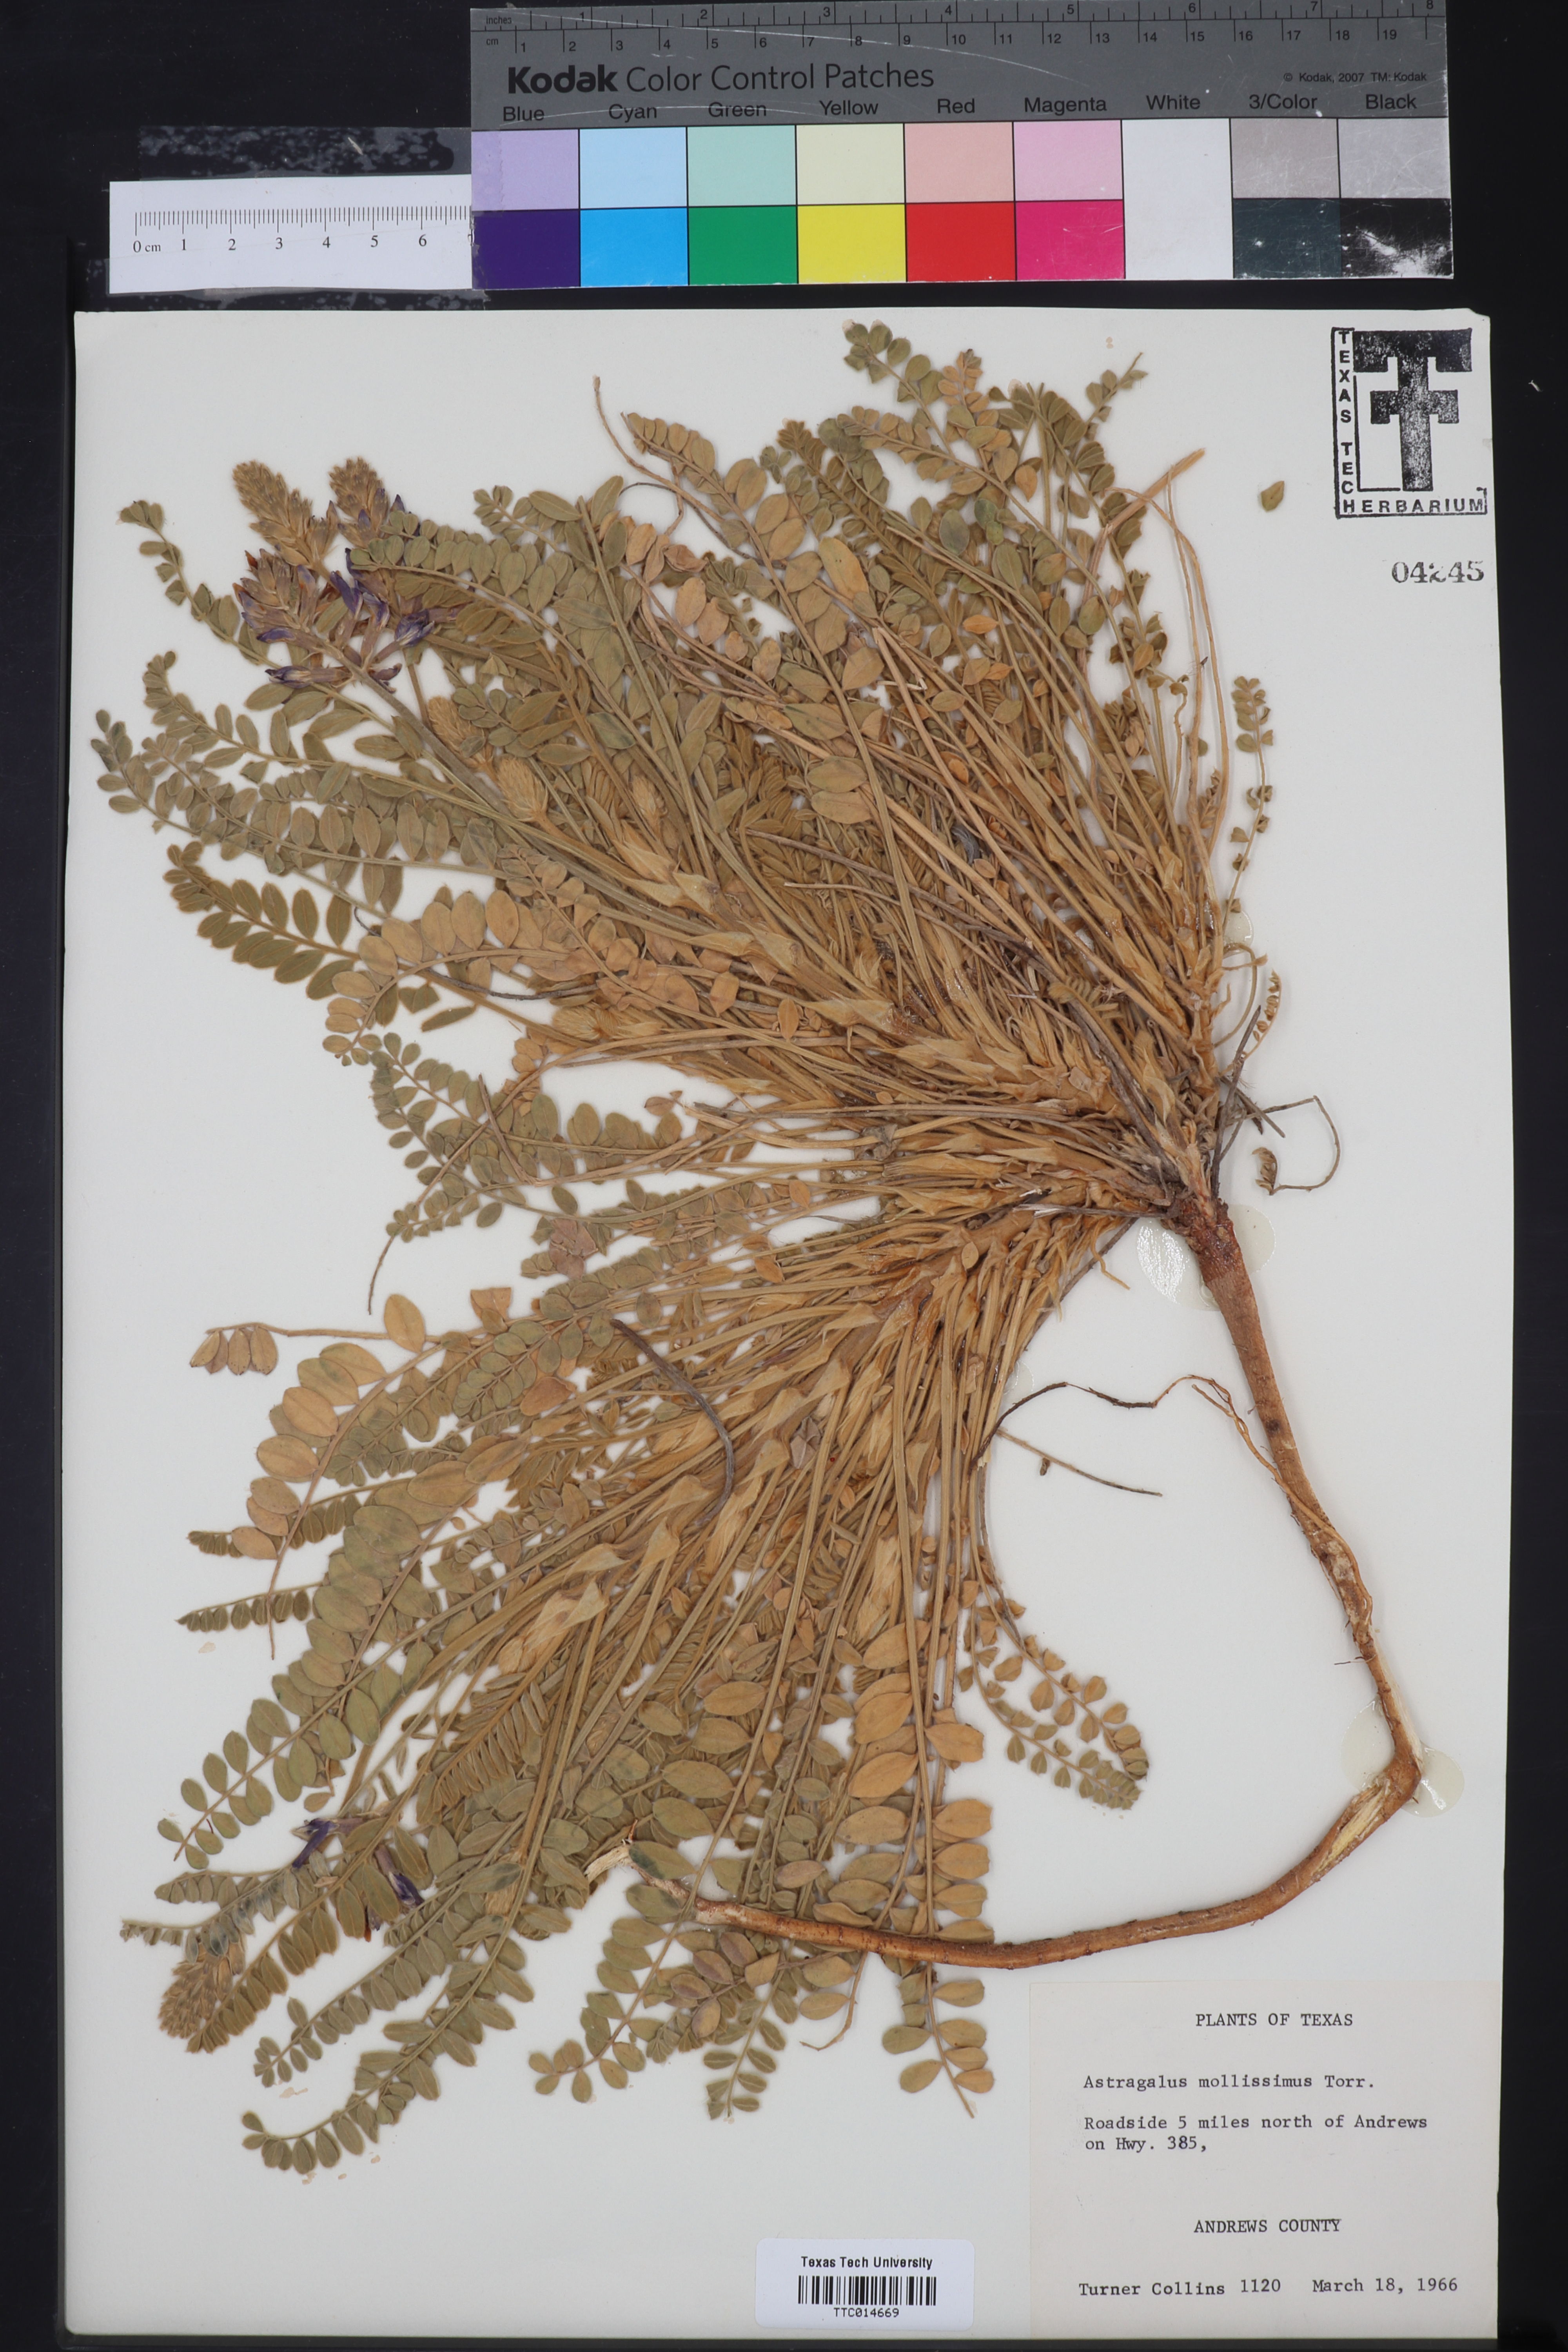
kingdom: Plantae
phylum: Tracheophyta
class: Magnoliopsida
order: Fabales
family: Fabaceae
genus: Astragalus
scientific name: Astragalus mollissimus
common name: Woolly locoweed
